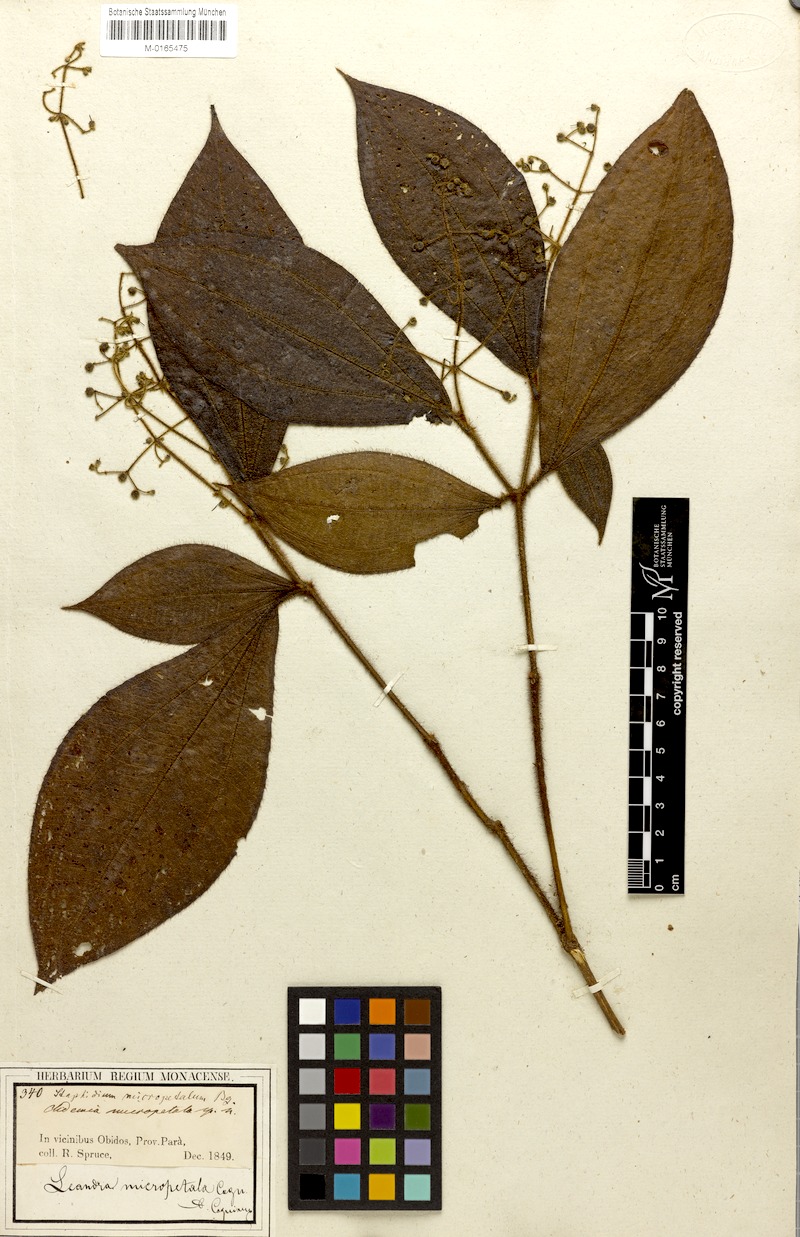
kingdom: Plantae
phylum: Tracheophyta
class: Magnoliopsida
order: Myrtales
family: Melastomataceae
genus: Miconia
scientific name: Miconia nanopetala
